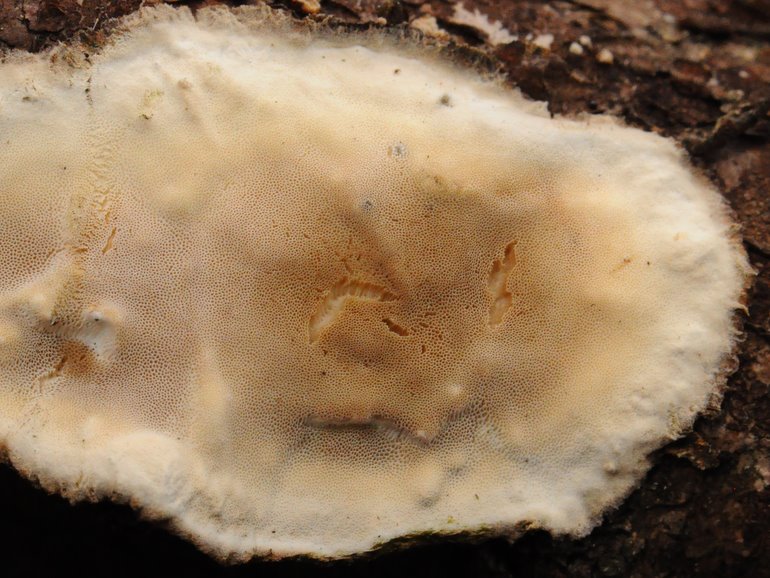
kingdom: Fungi
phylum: Basidiomycota
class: Agaricomycetes
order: Polyporales
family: Incrustoporiaceae
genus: Skeletocutis
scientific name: Skeletocutis nemoralis
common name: stor krystalporesvamp
